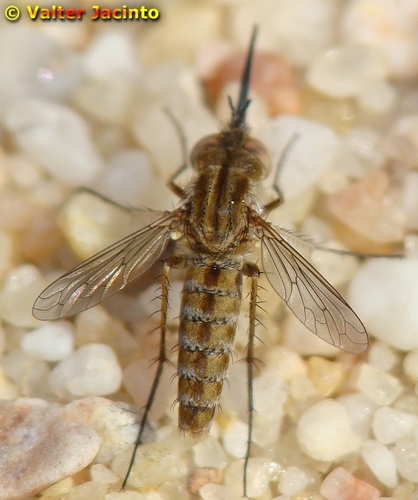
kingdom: Animalia
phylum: Arthropoda
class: Insecta
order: Diptera
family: Bombyliidae
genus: Amictus
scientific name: Amictus variegatus
